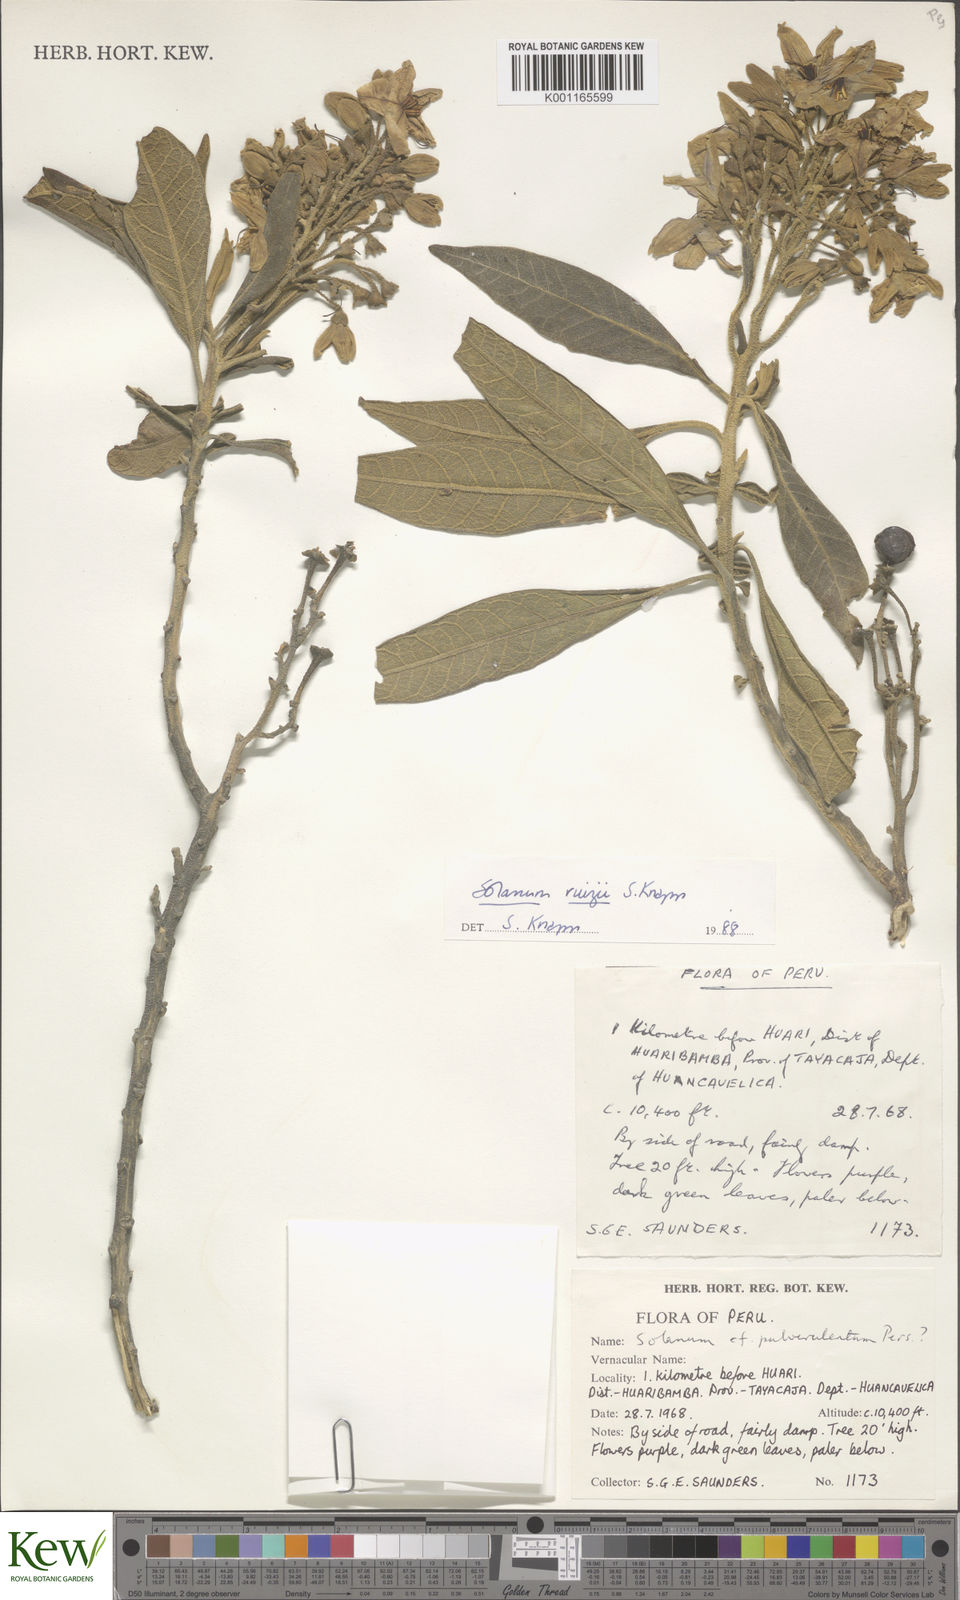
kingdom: Plantae
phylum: Tracheophyta
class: Magnoliopsida
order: Solanales
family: Solanaceae
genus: Solanum
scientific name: Solanum ruizii
